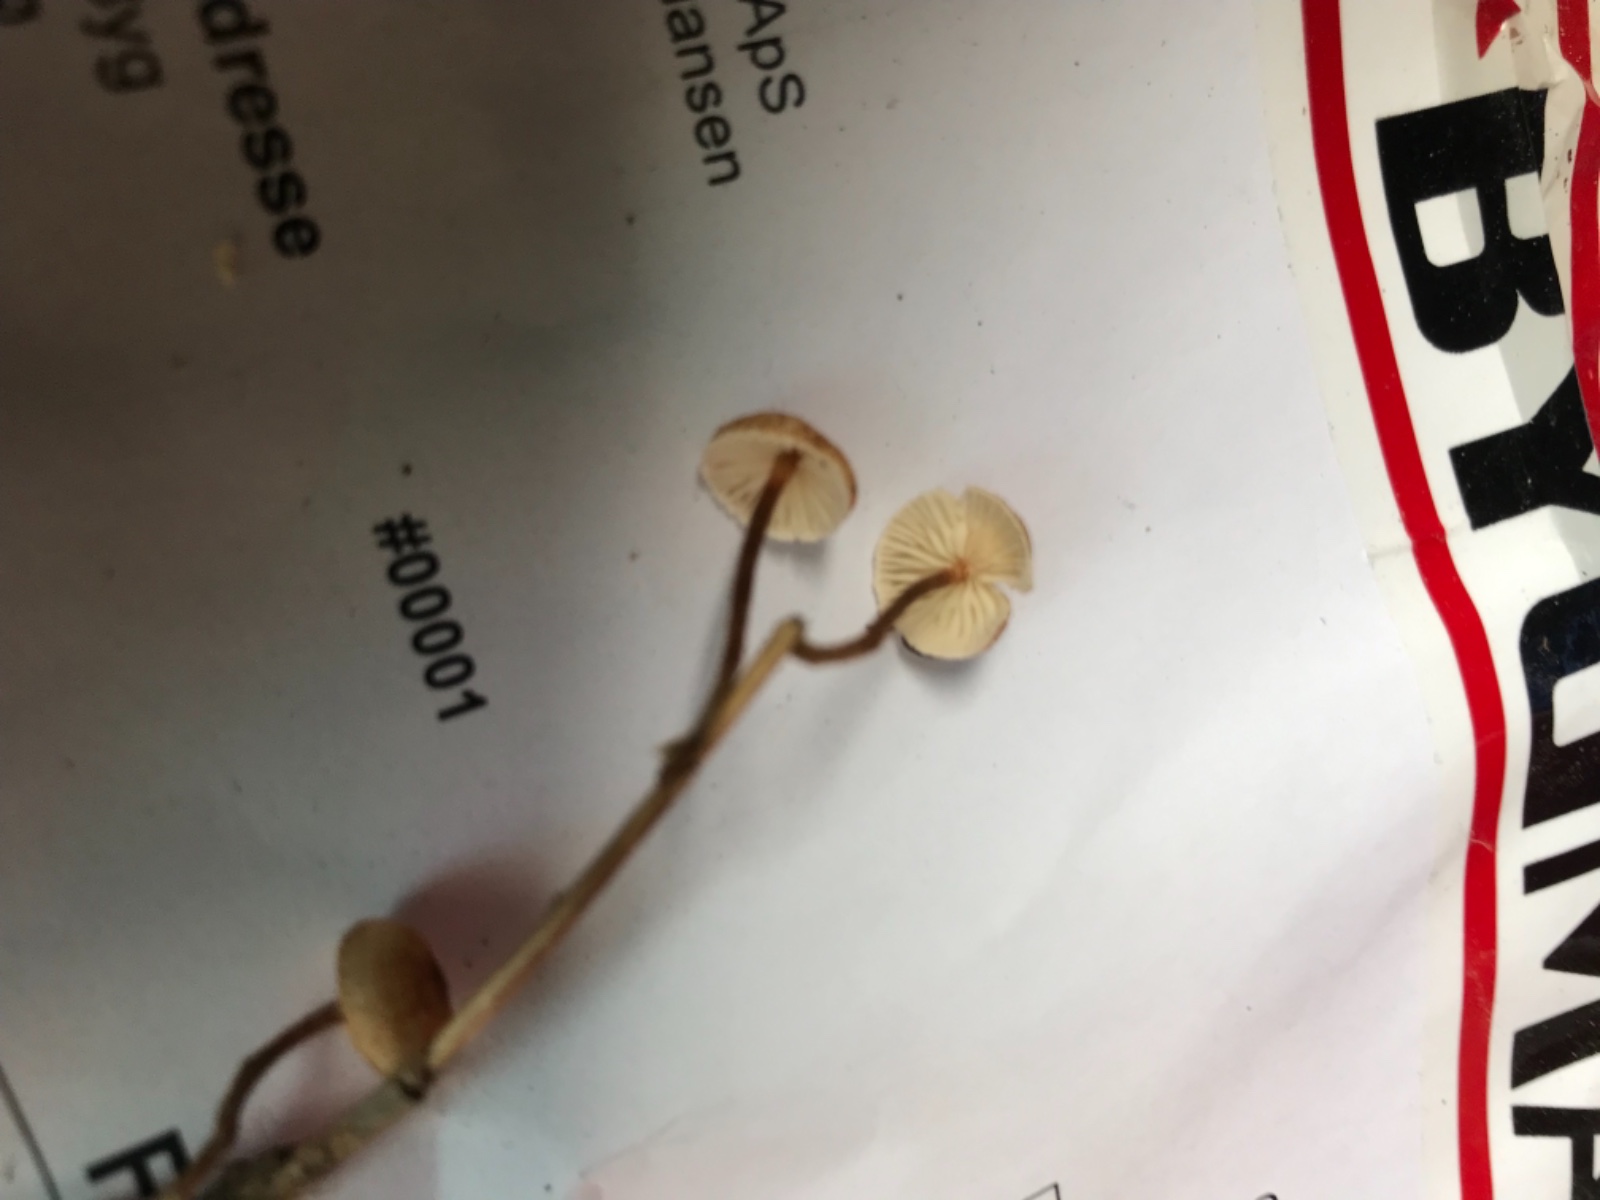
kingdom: Fungi
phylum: Basidiomycota
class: Agaricomycetes
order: Agaricales
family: Marasmiaceae
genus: Crinipellis
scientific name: Crinipellis scabella
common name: børstefod
